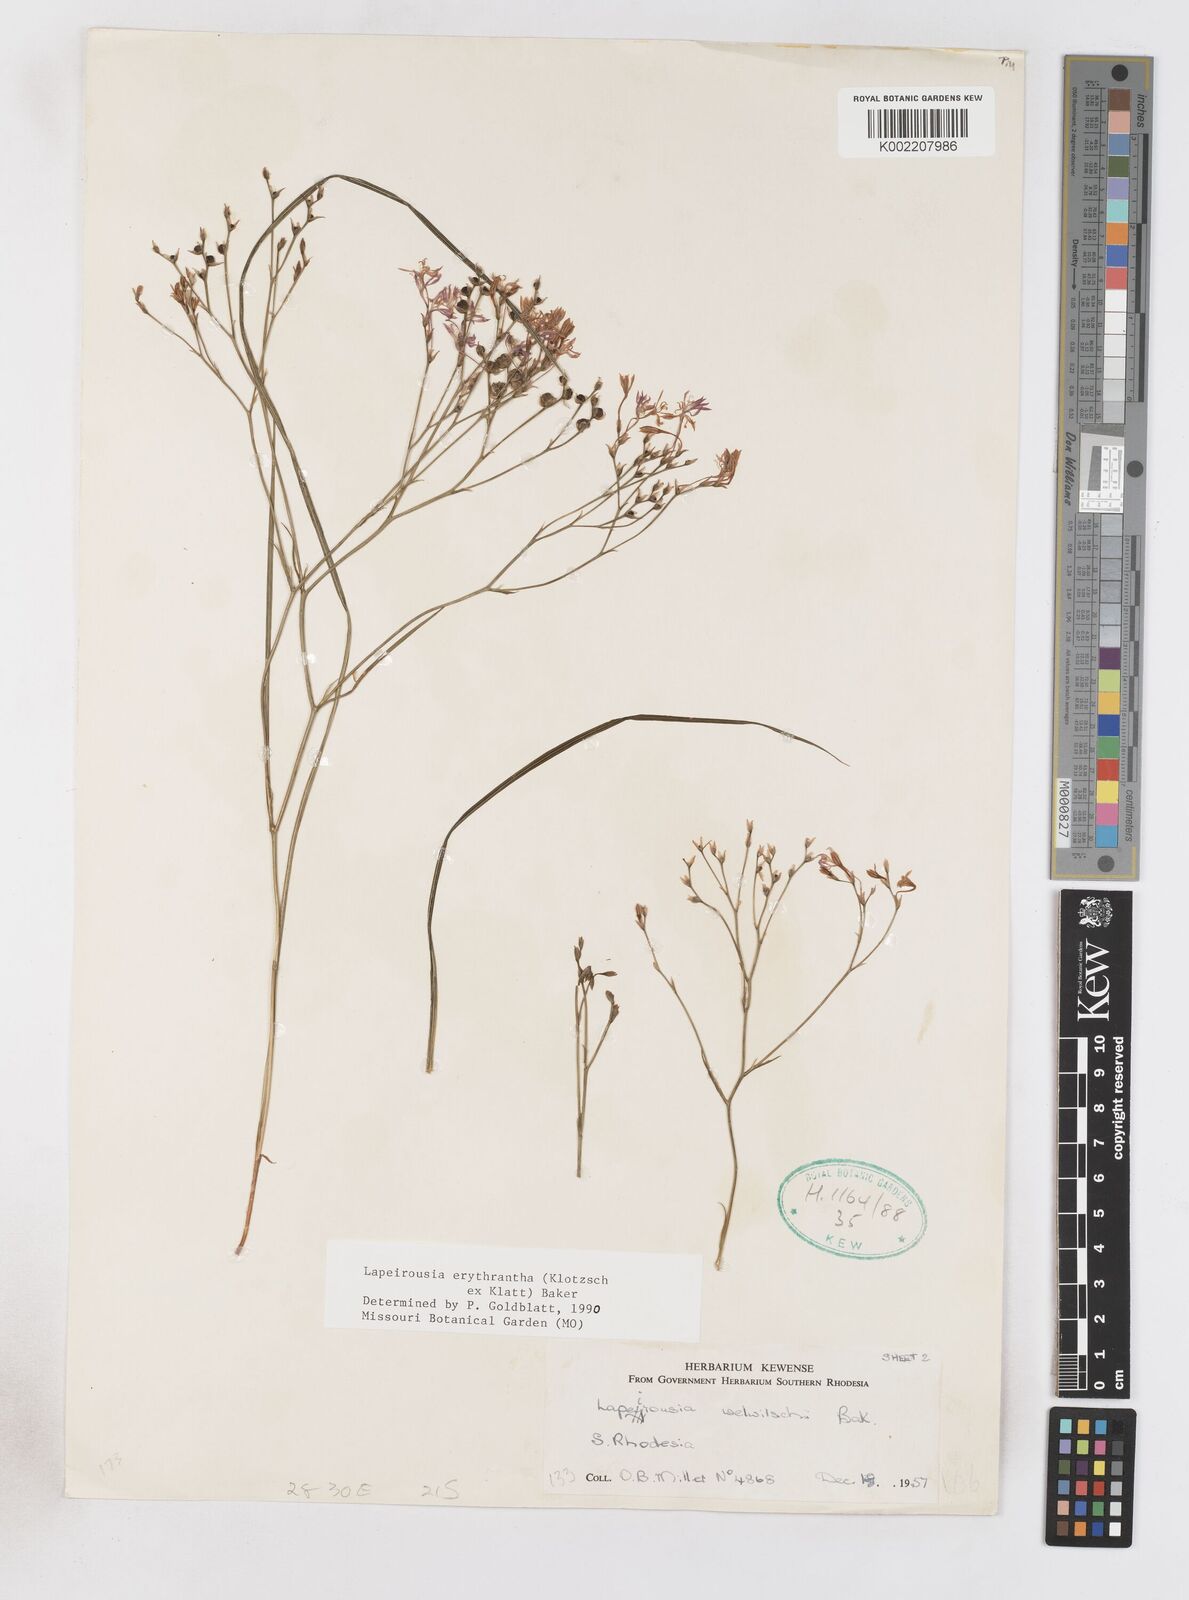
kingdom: Plantae
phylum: Tracheophyta
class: Liliopsida
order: Asparagales
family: Iridaceae
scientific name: Iridaceae
